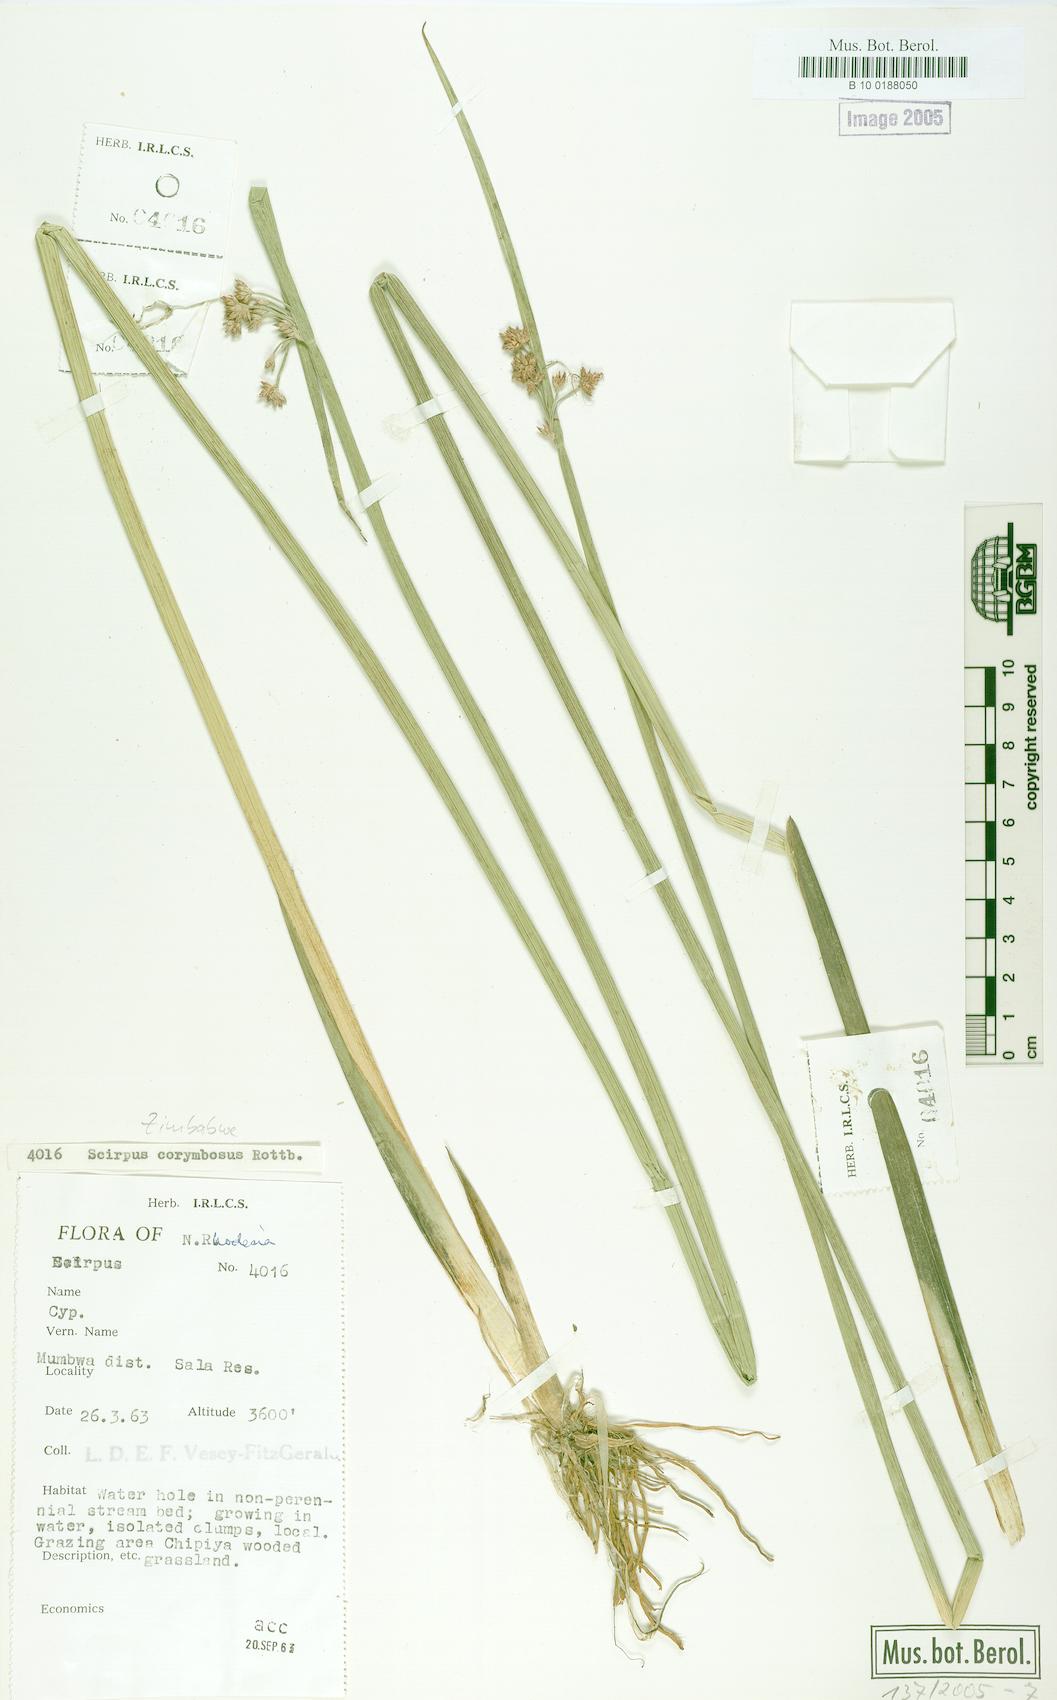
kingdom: Plantae
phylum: Tracheophyta
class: Liliopsida
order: Poales
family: Cyperaceae
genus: Scirpus
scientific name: Scirpus corymbosus
